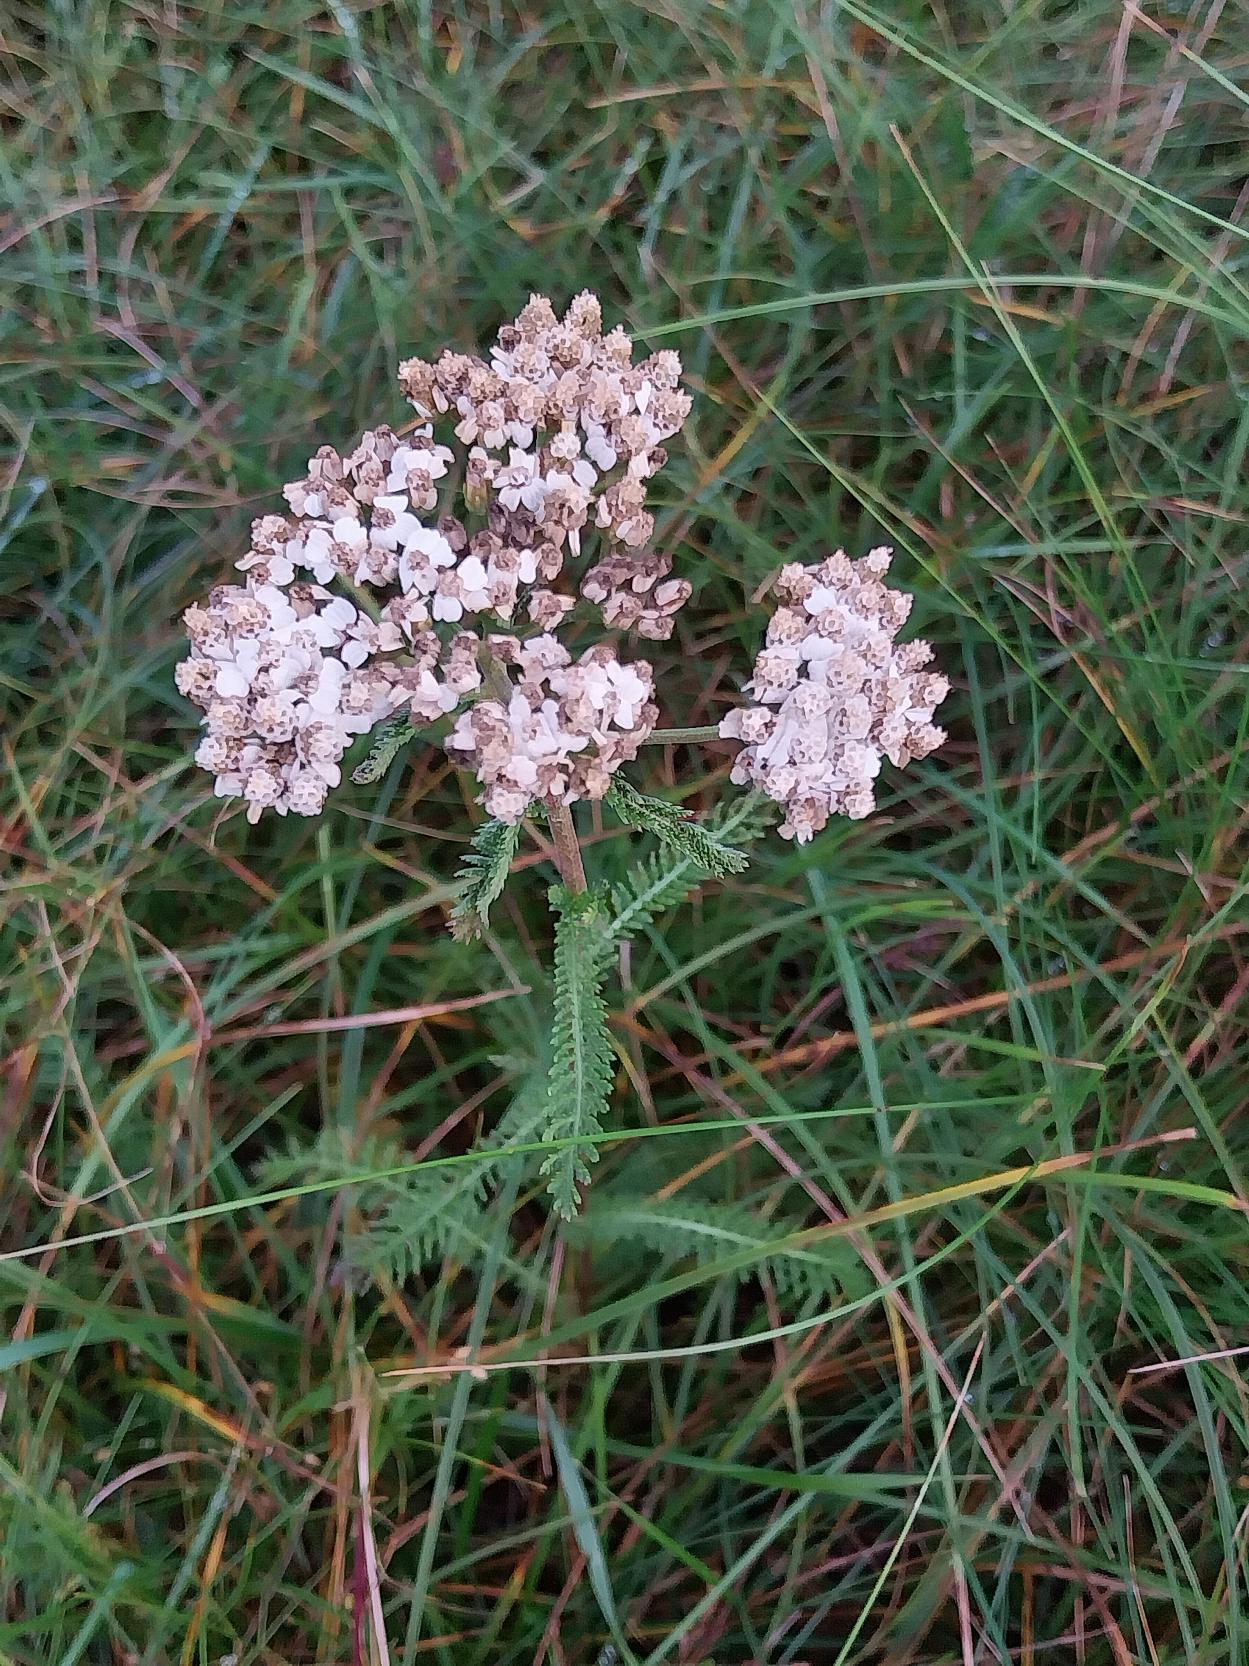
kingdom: Plantae
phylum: Tracheophyta
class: Magnoliopsida
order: Asterales
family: Asteraceae
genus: Achillea
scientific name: Achillea millefolium
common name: Almindelig røllike
